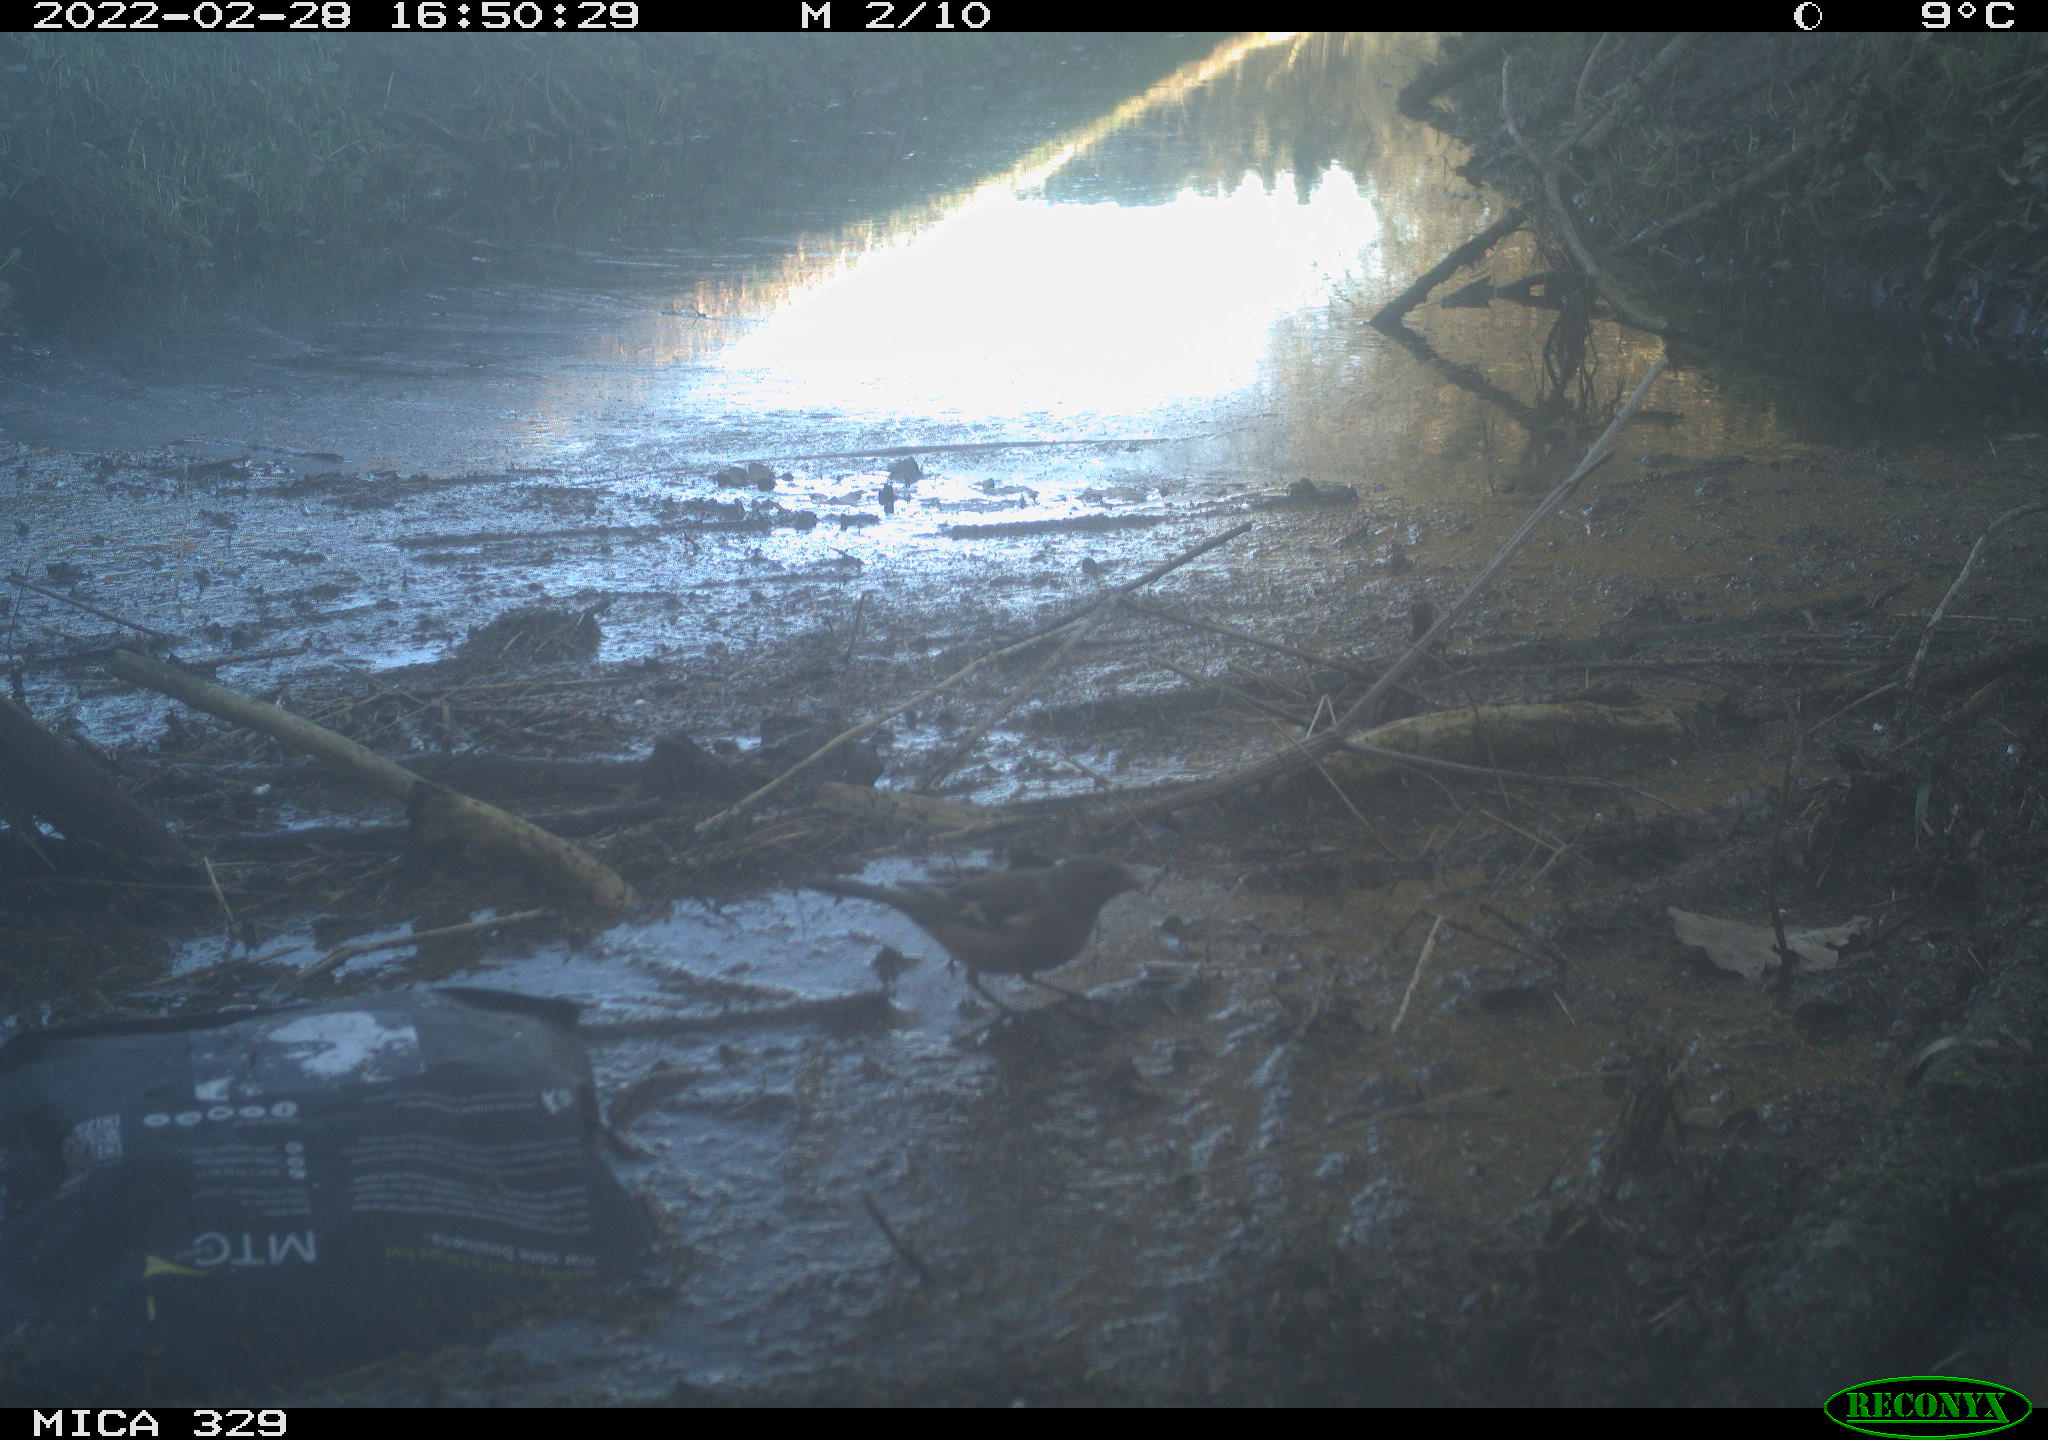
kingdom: Animalia
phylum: Chordata
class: Aves
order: Passeriformes
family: Fringillidae
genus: Fringilla
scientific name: Fringilla coelebs
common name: Common chaffinch
